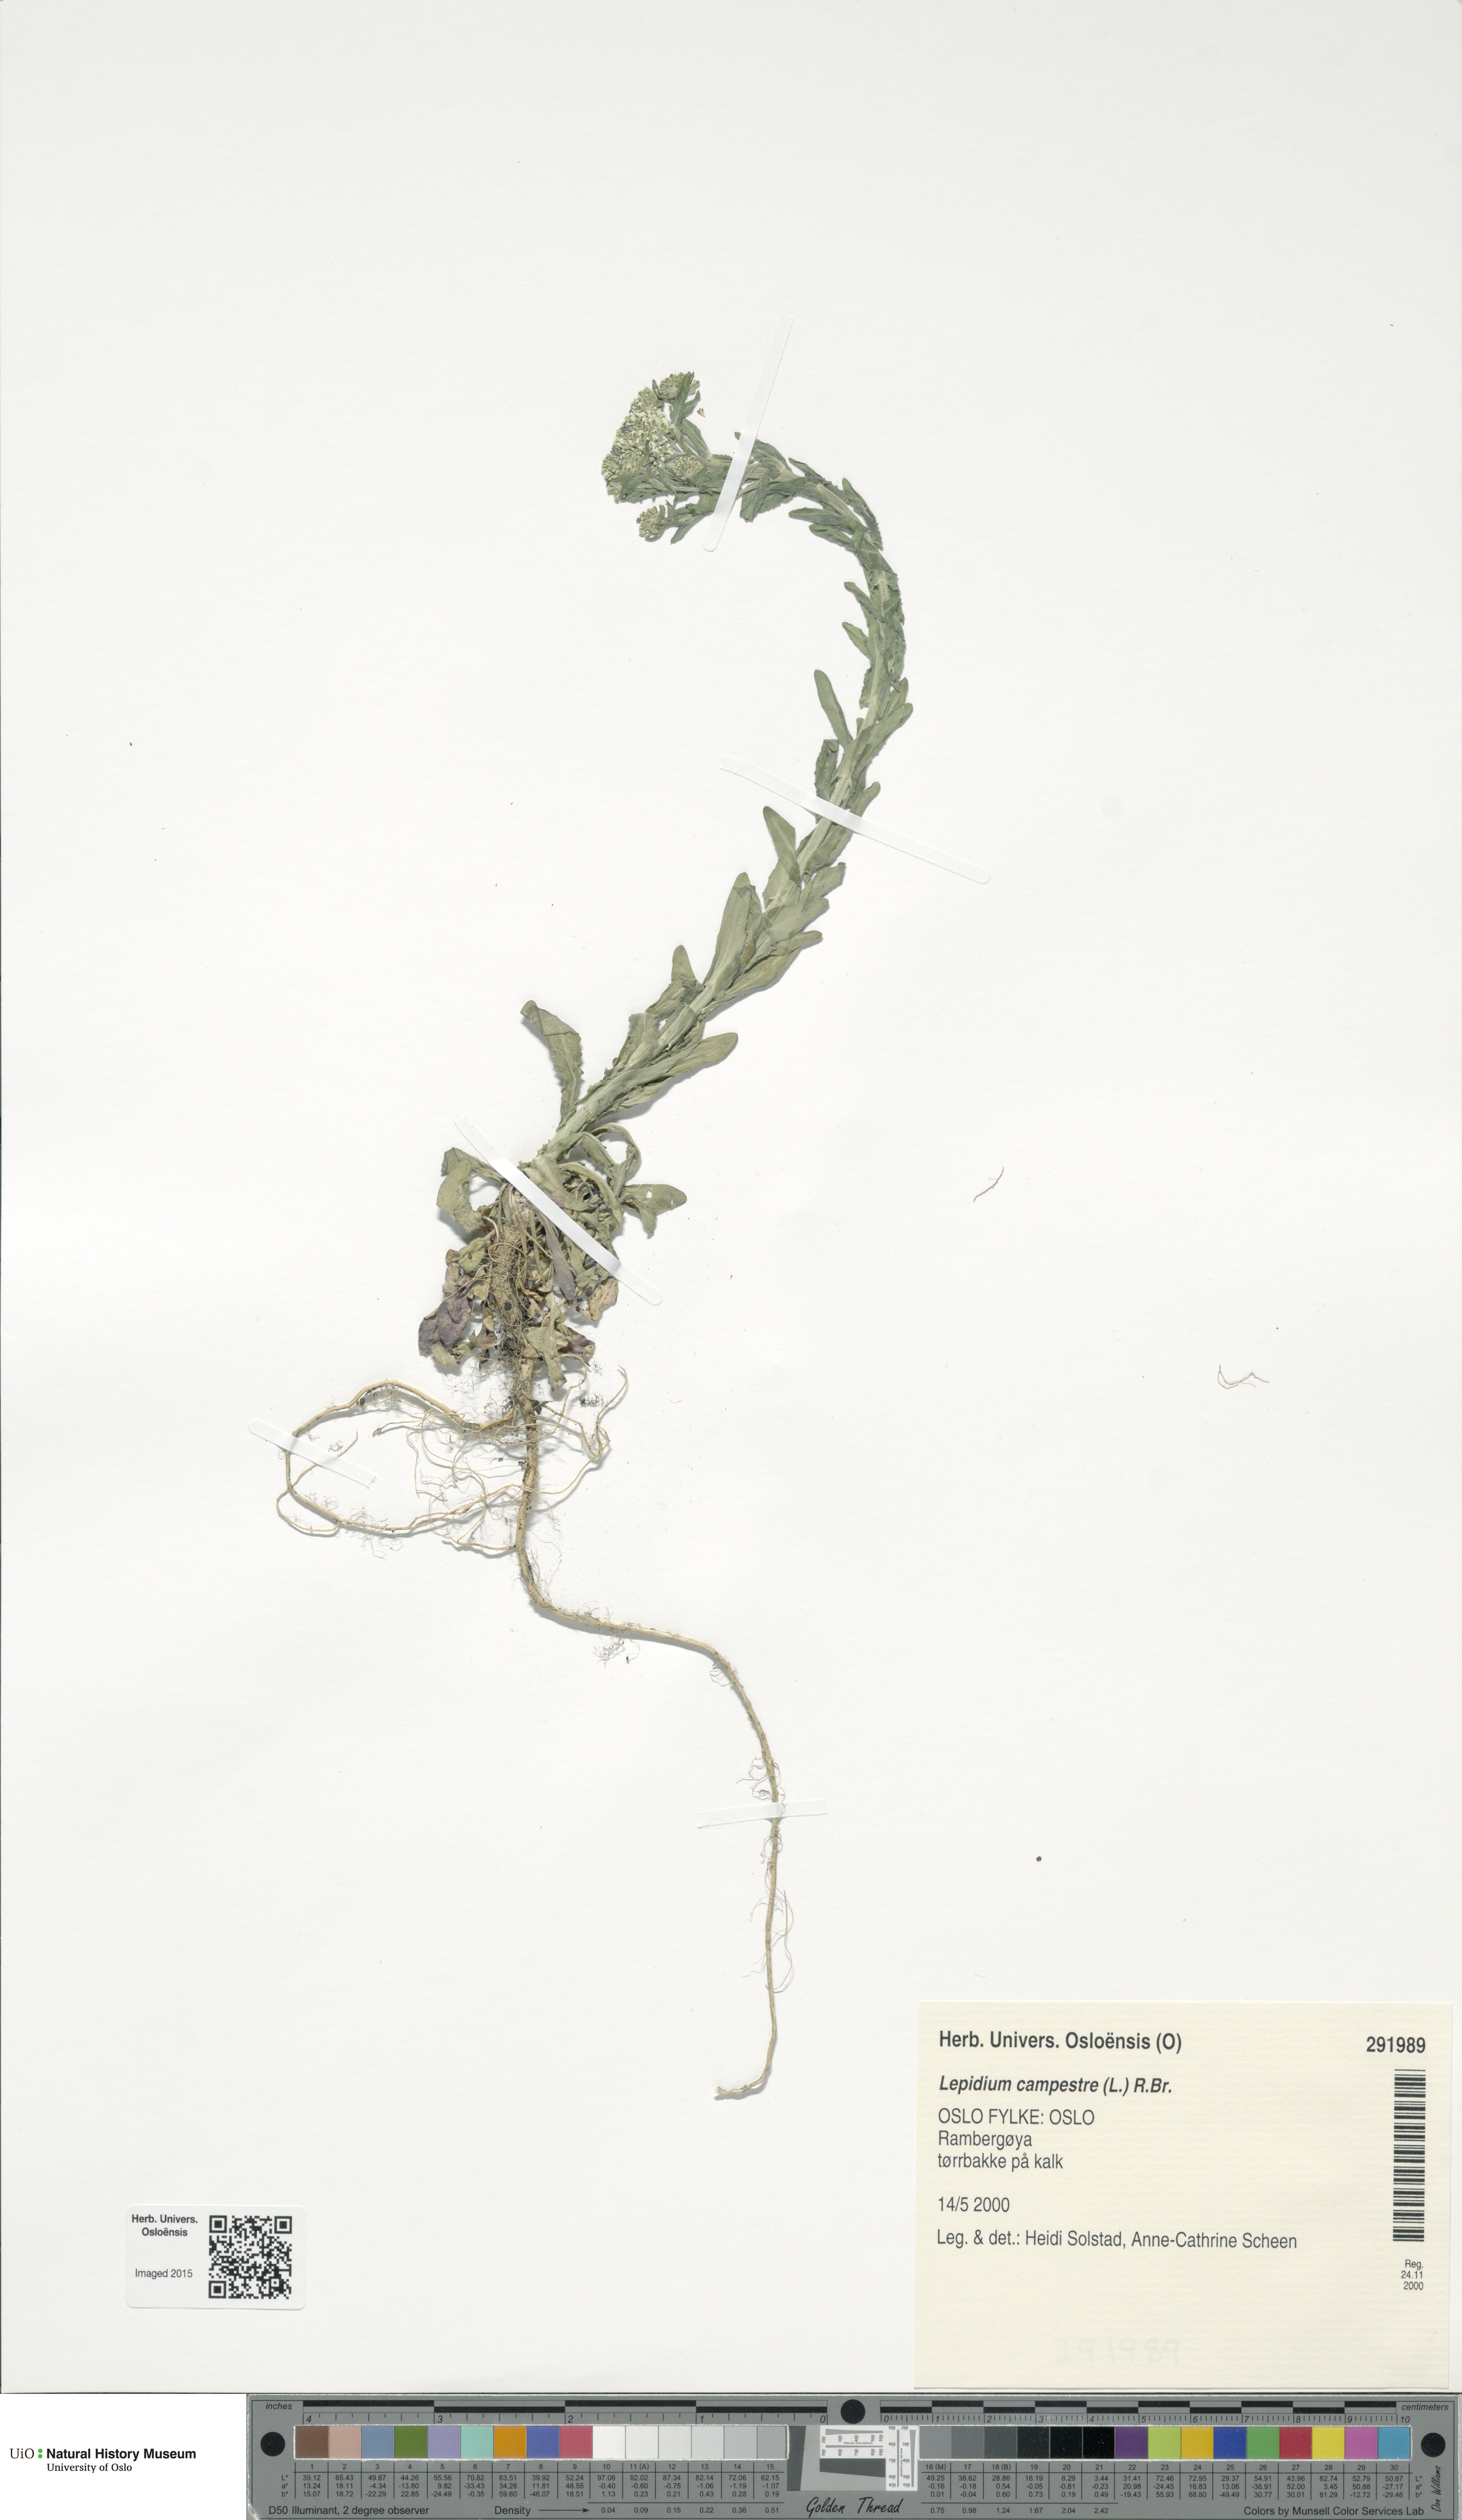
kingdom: Plantae
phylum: Tracheophyta
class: Magnoliopsida
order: Brassicales
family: Brassicaceae
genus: Lepidium
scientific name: Lepidium campestre
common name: Field pepperwort
